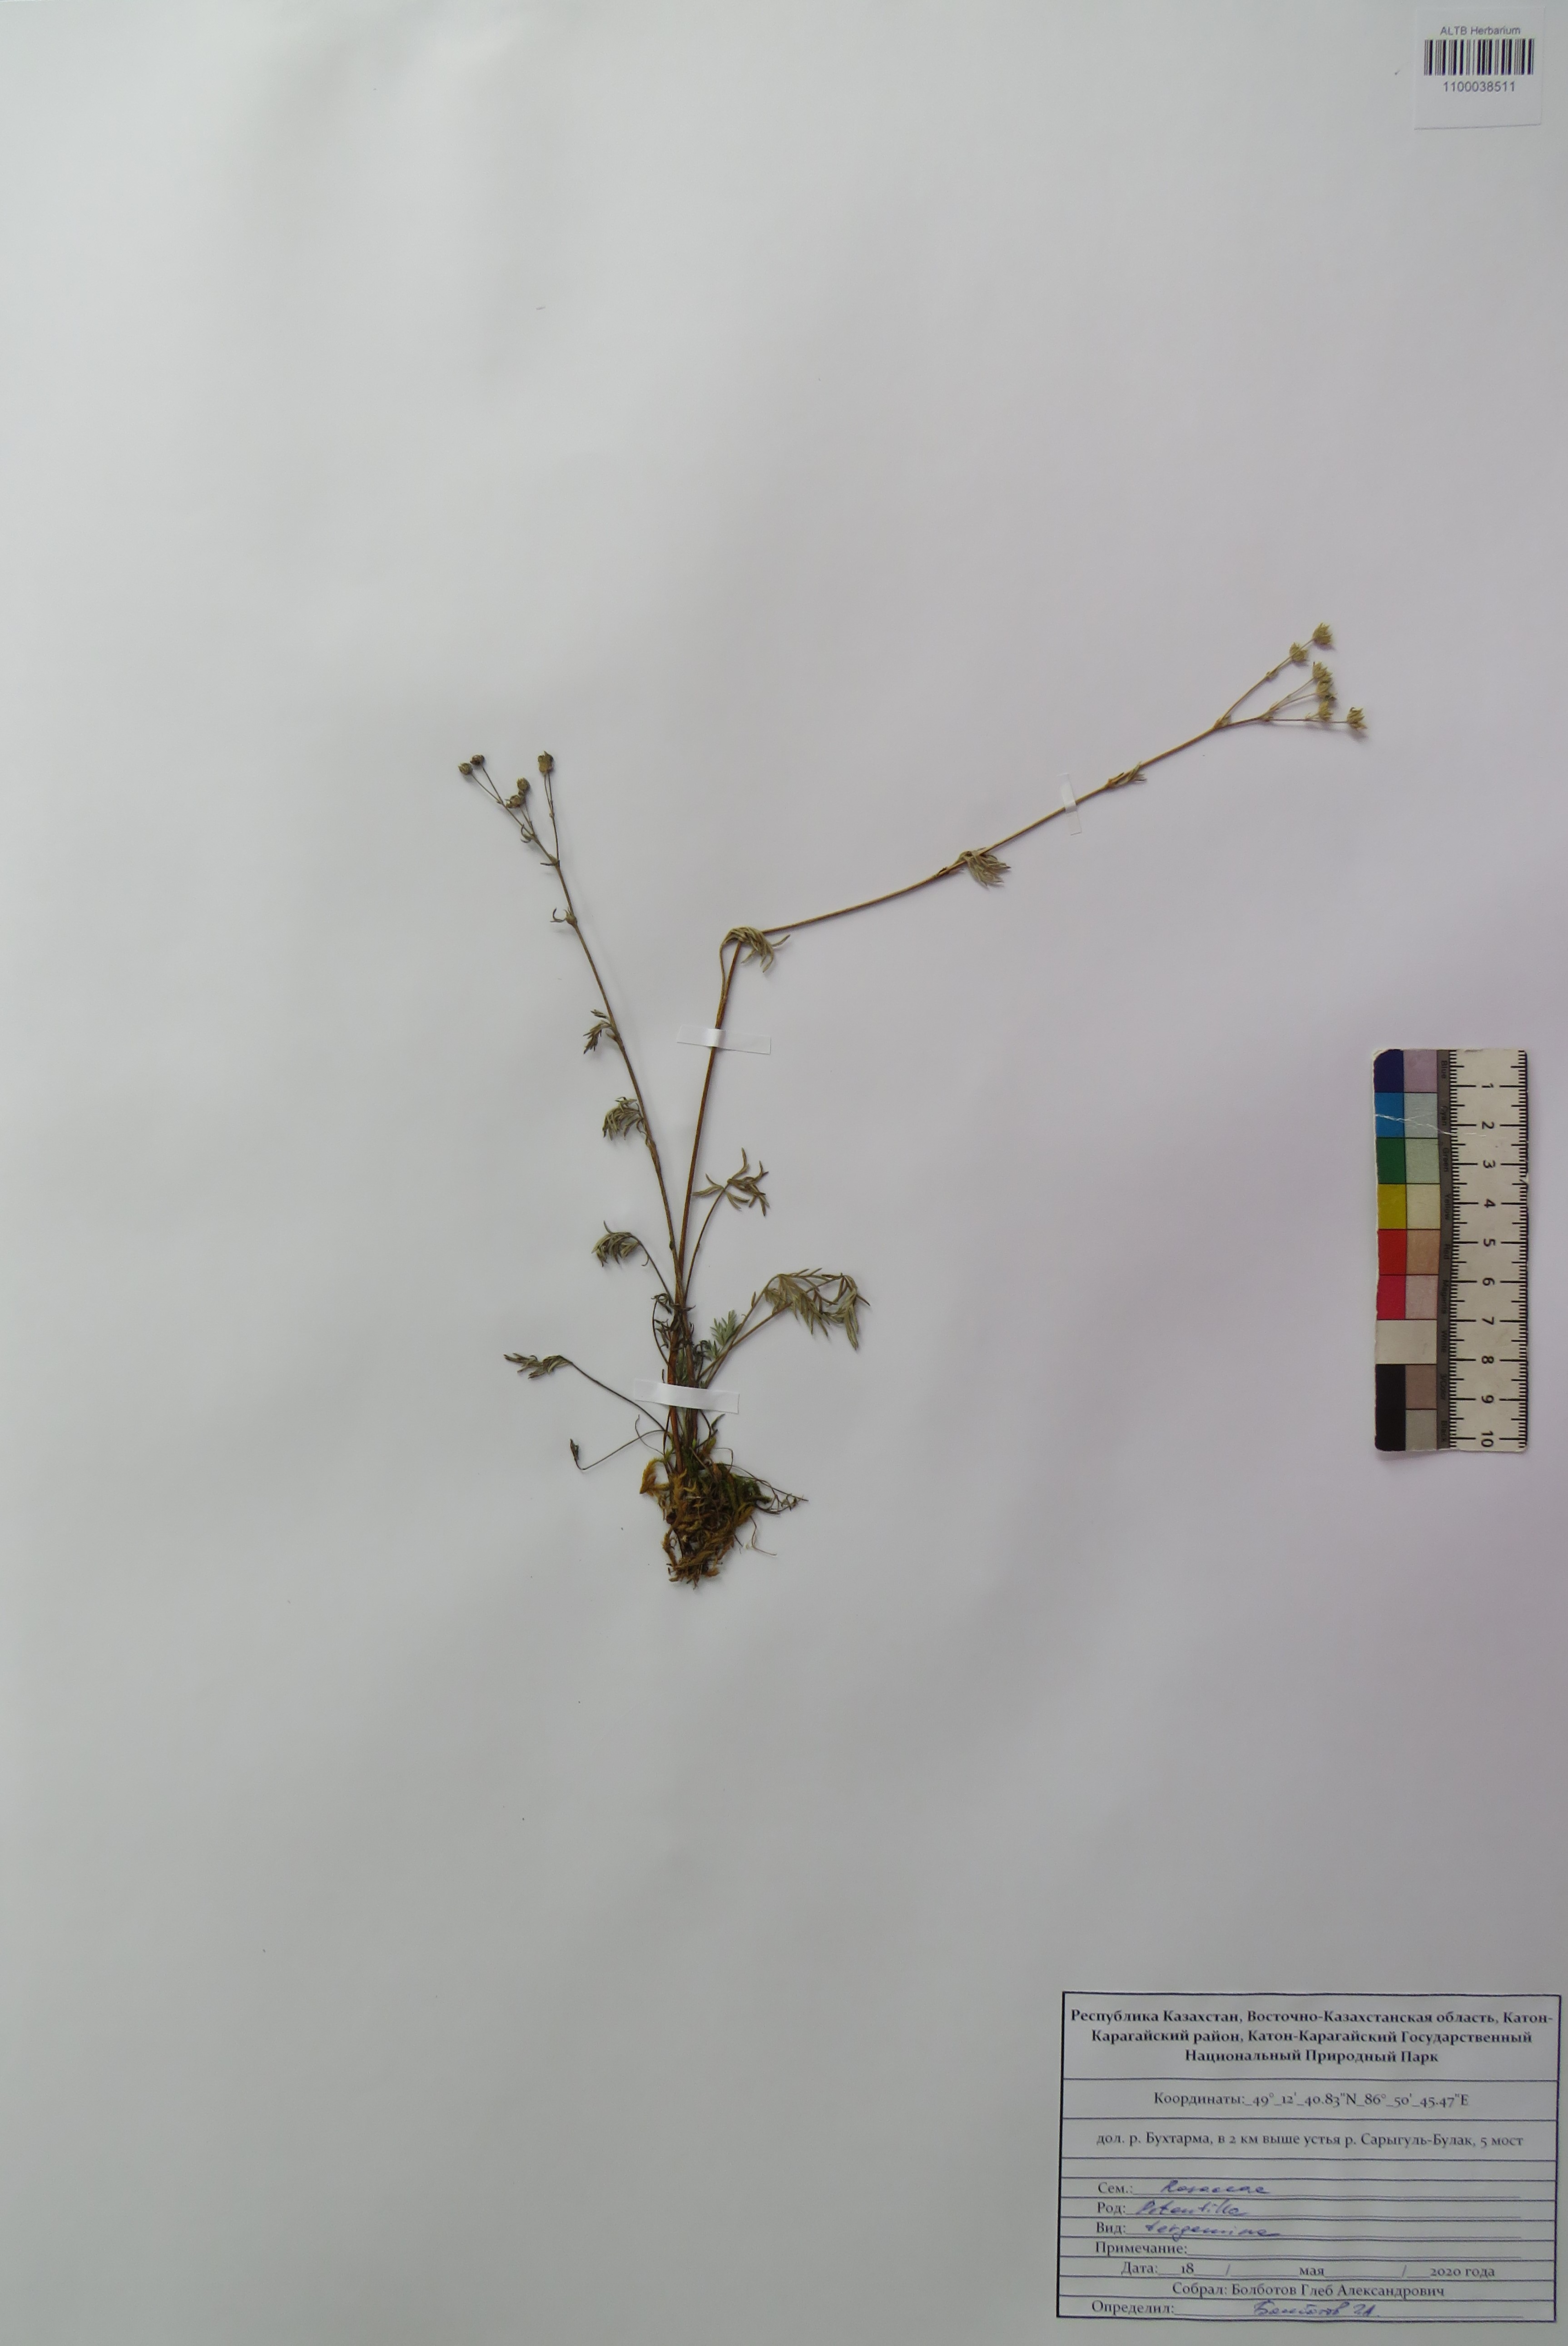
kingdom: Plantae
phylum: Tracheophyta
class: Magnoliopsida
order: Rosales
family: Rosaceae
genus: Potentilla
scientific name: Potentilla tergemina
